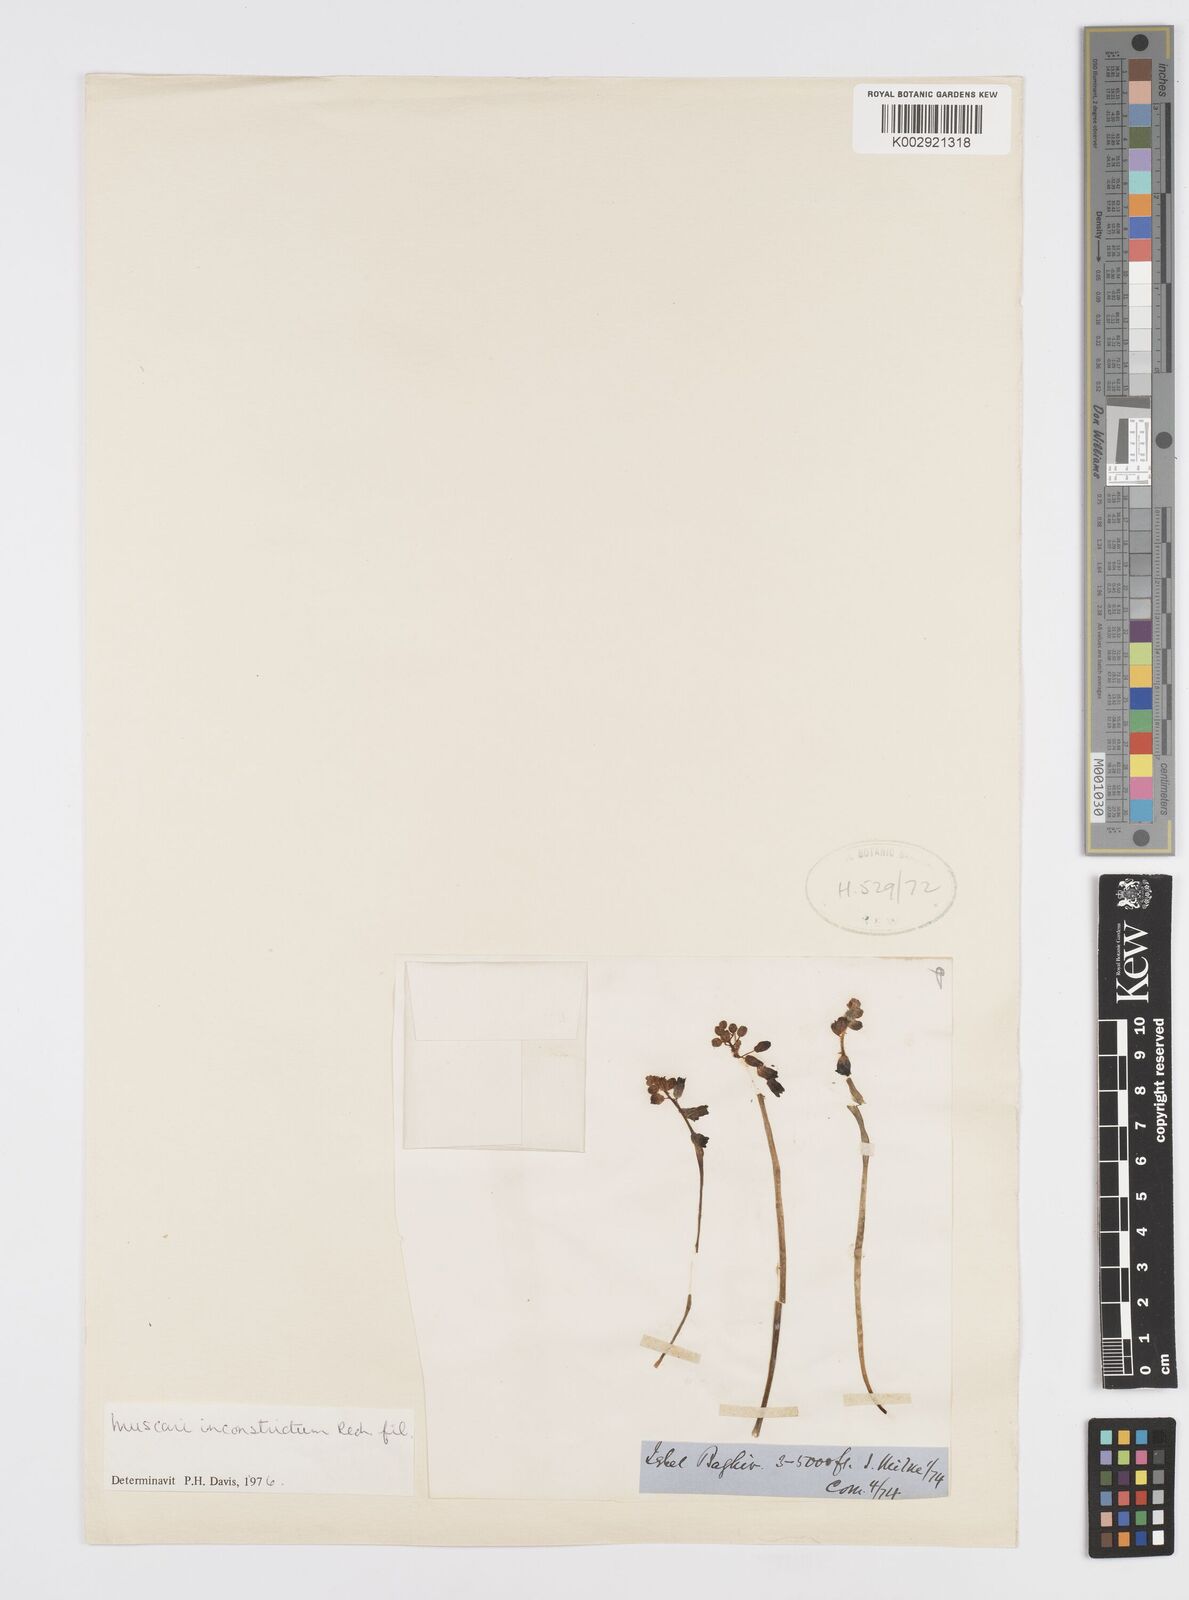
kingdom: Plantae
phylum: Tracheophyta
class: Liliopsida
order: Asparagales
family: Asparagaceae
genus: Muscari
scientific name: Muscari inconstrictum
